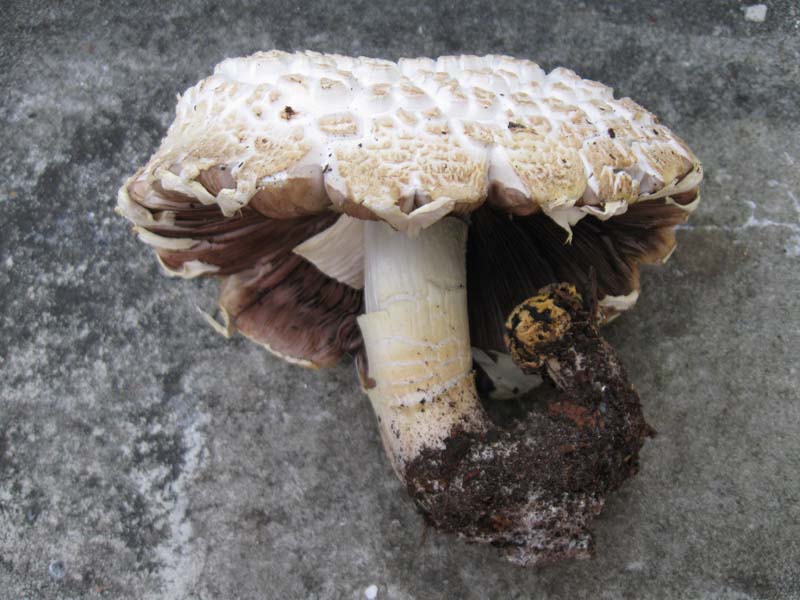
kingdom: Fungi
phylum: Basidiomycota
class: Agaricomycetes
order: Agaricales
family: Agaricaceae
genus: Agaricus
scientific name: Agaricus arvensis
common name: ager-champignon
